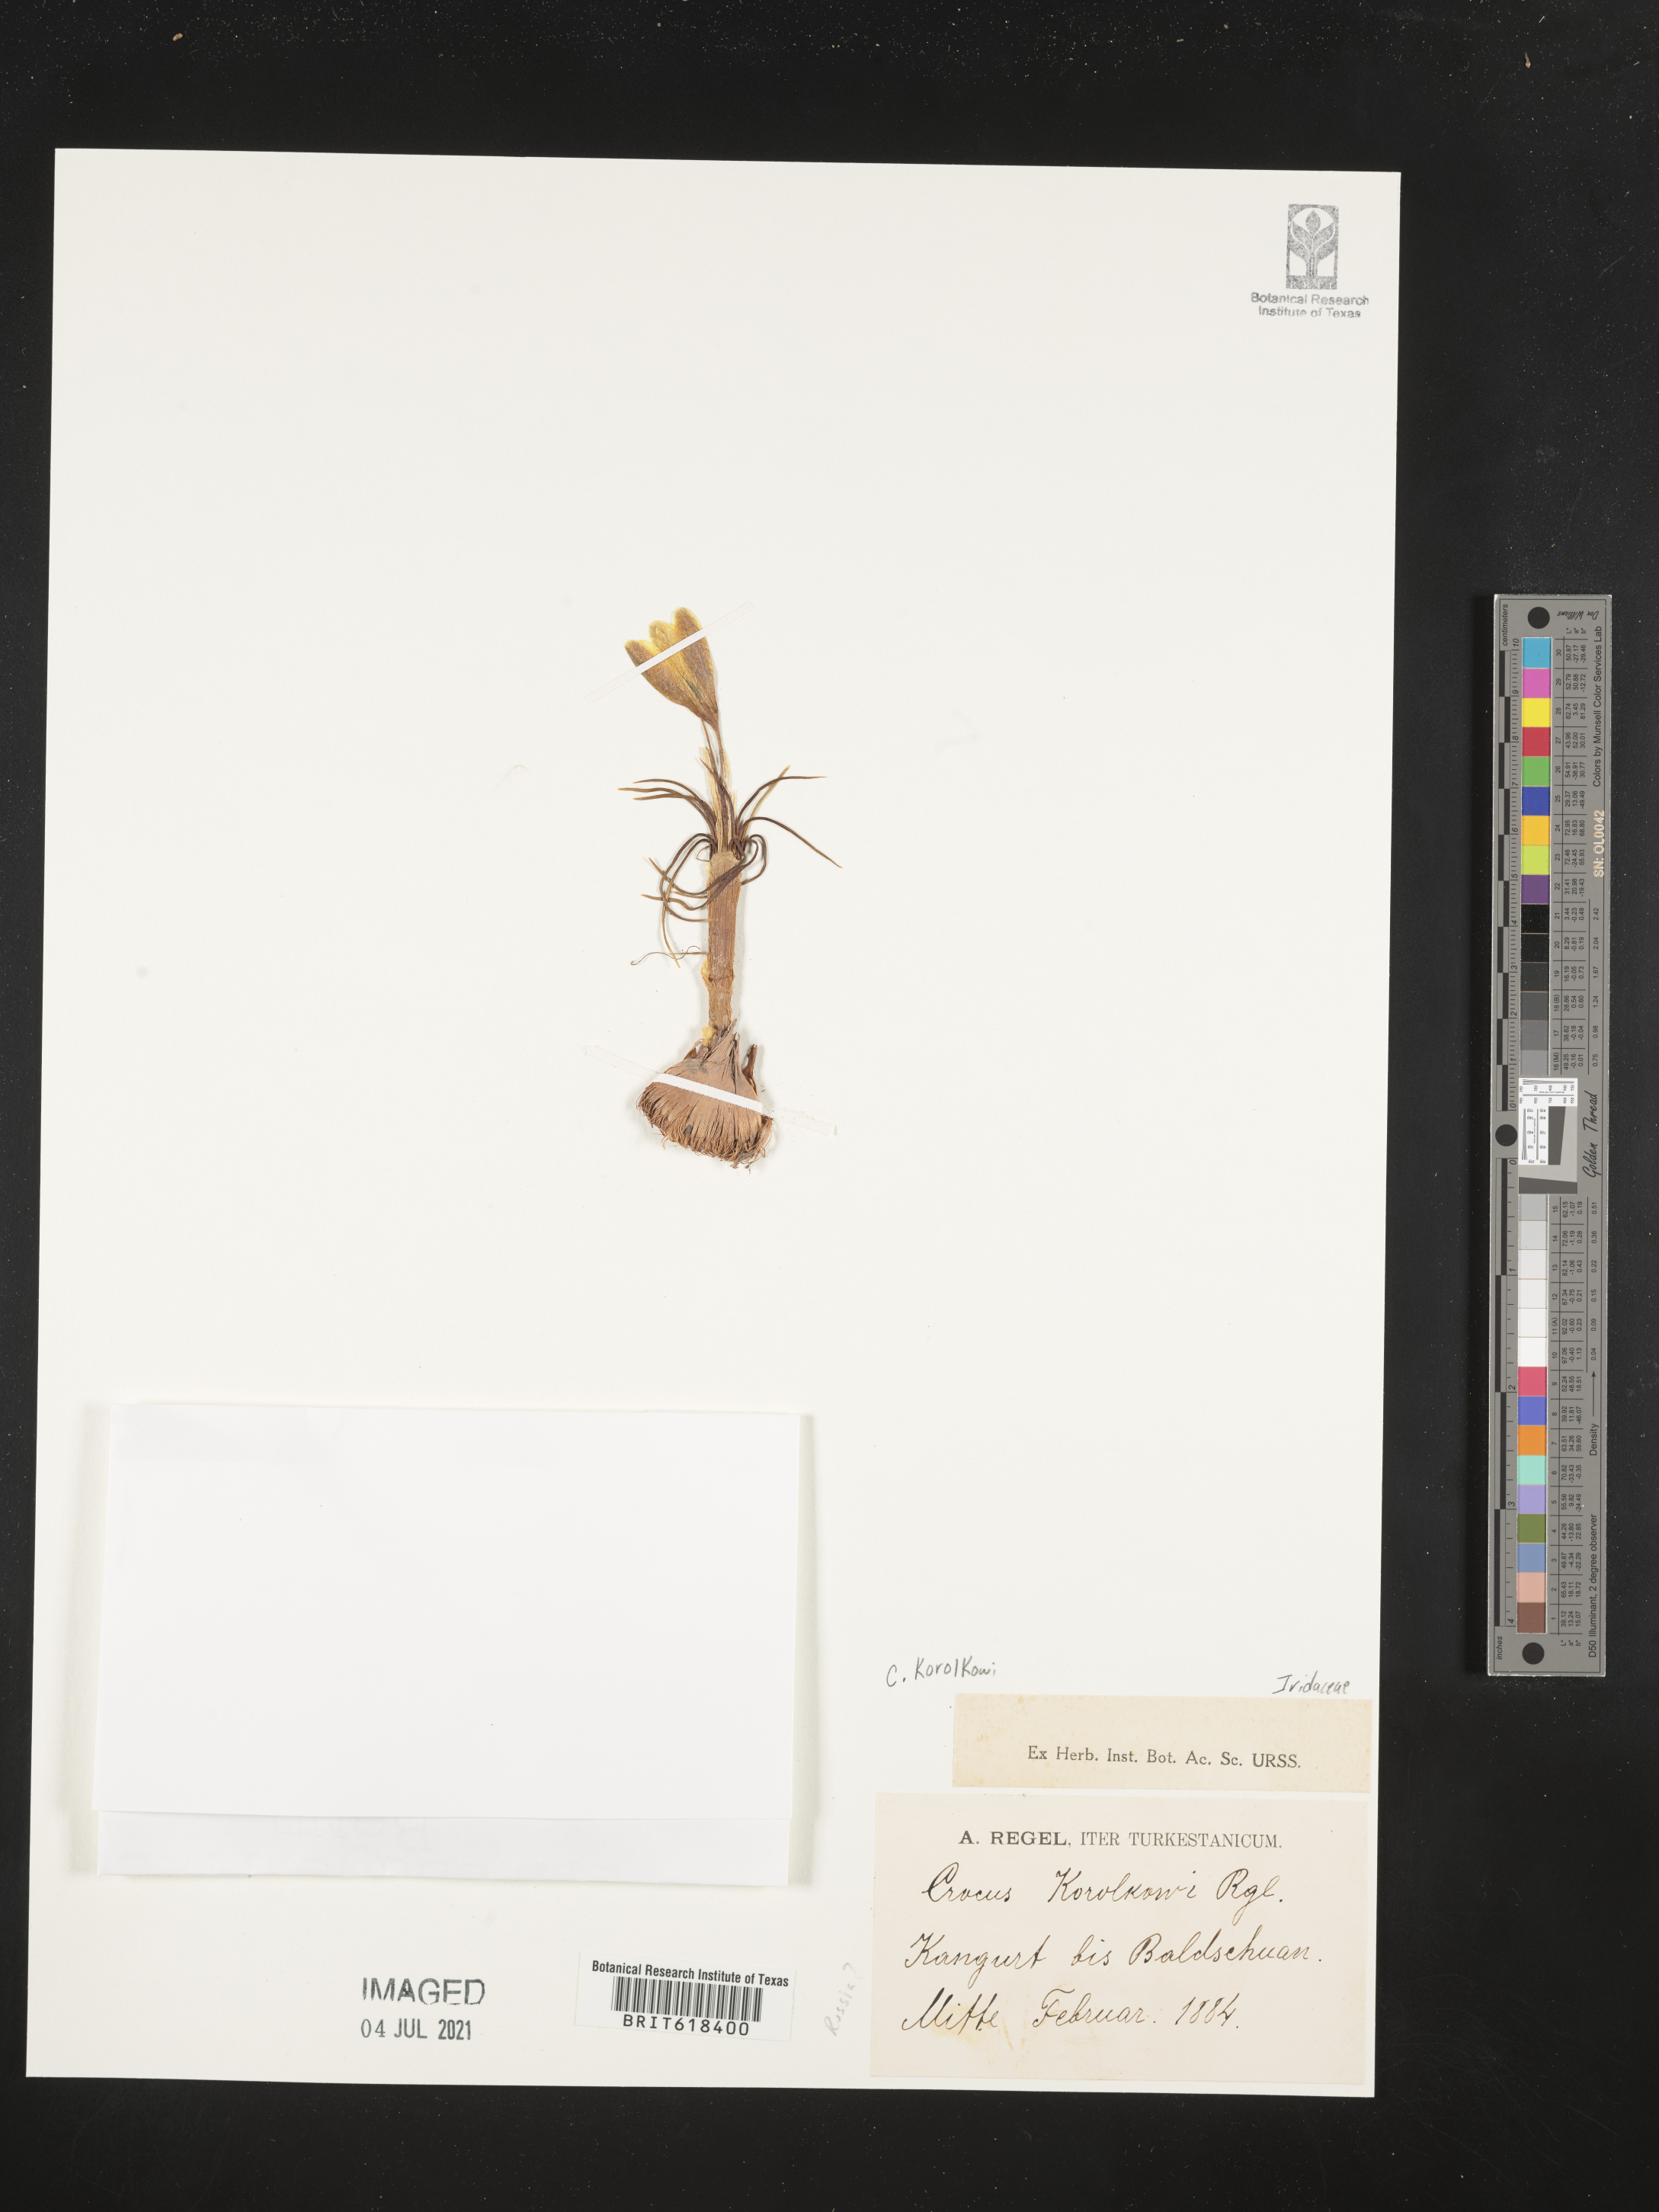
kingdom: Plantae
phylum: Tracheophyta
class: Liliopsida
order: Asparagales
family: Iridaceae
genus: Crocus
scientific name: Crocus korolkowii
